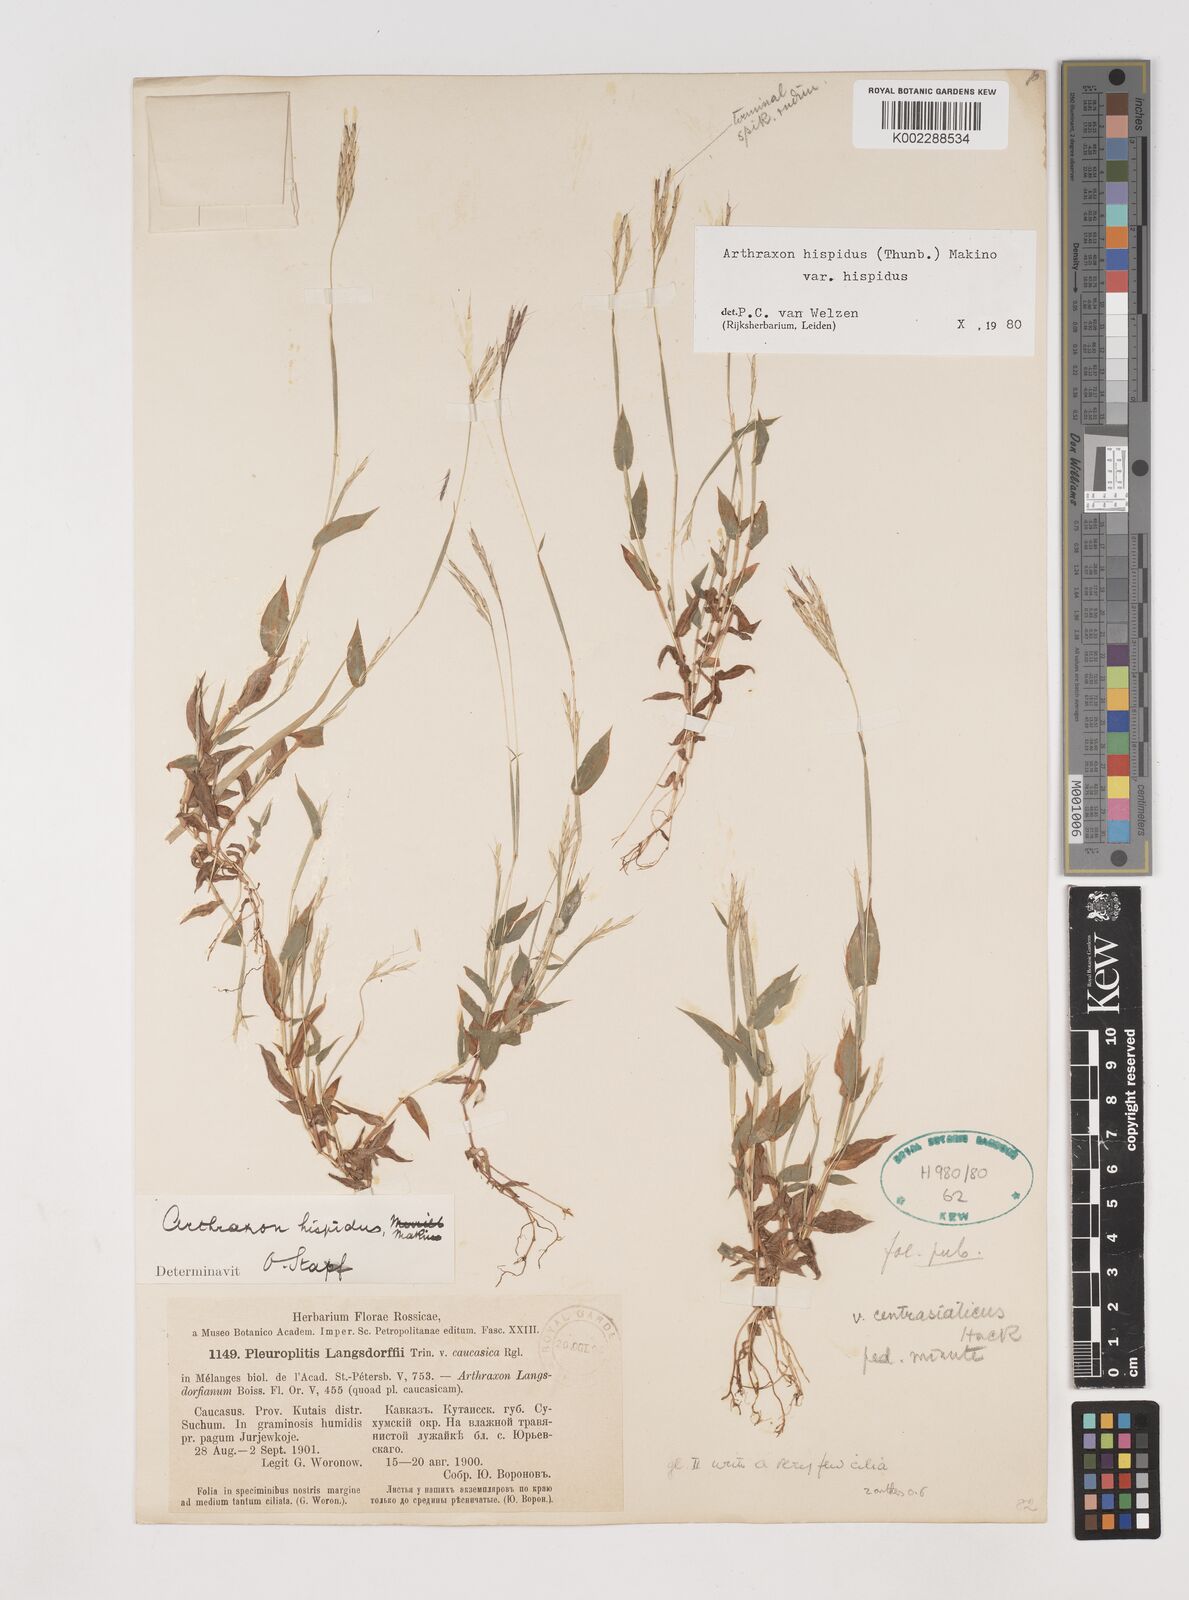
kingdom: Plantae
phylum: Tracheophyta
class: Liliopsida
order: Poales
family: Poaceae
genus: Arthraxon
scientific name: Arthraxon hispidus
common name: Small carpgrass
